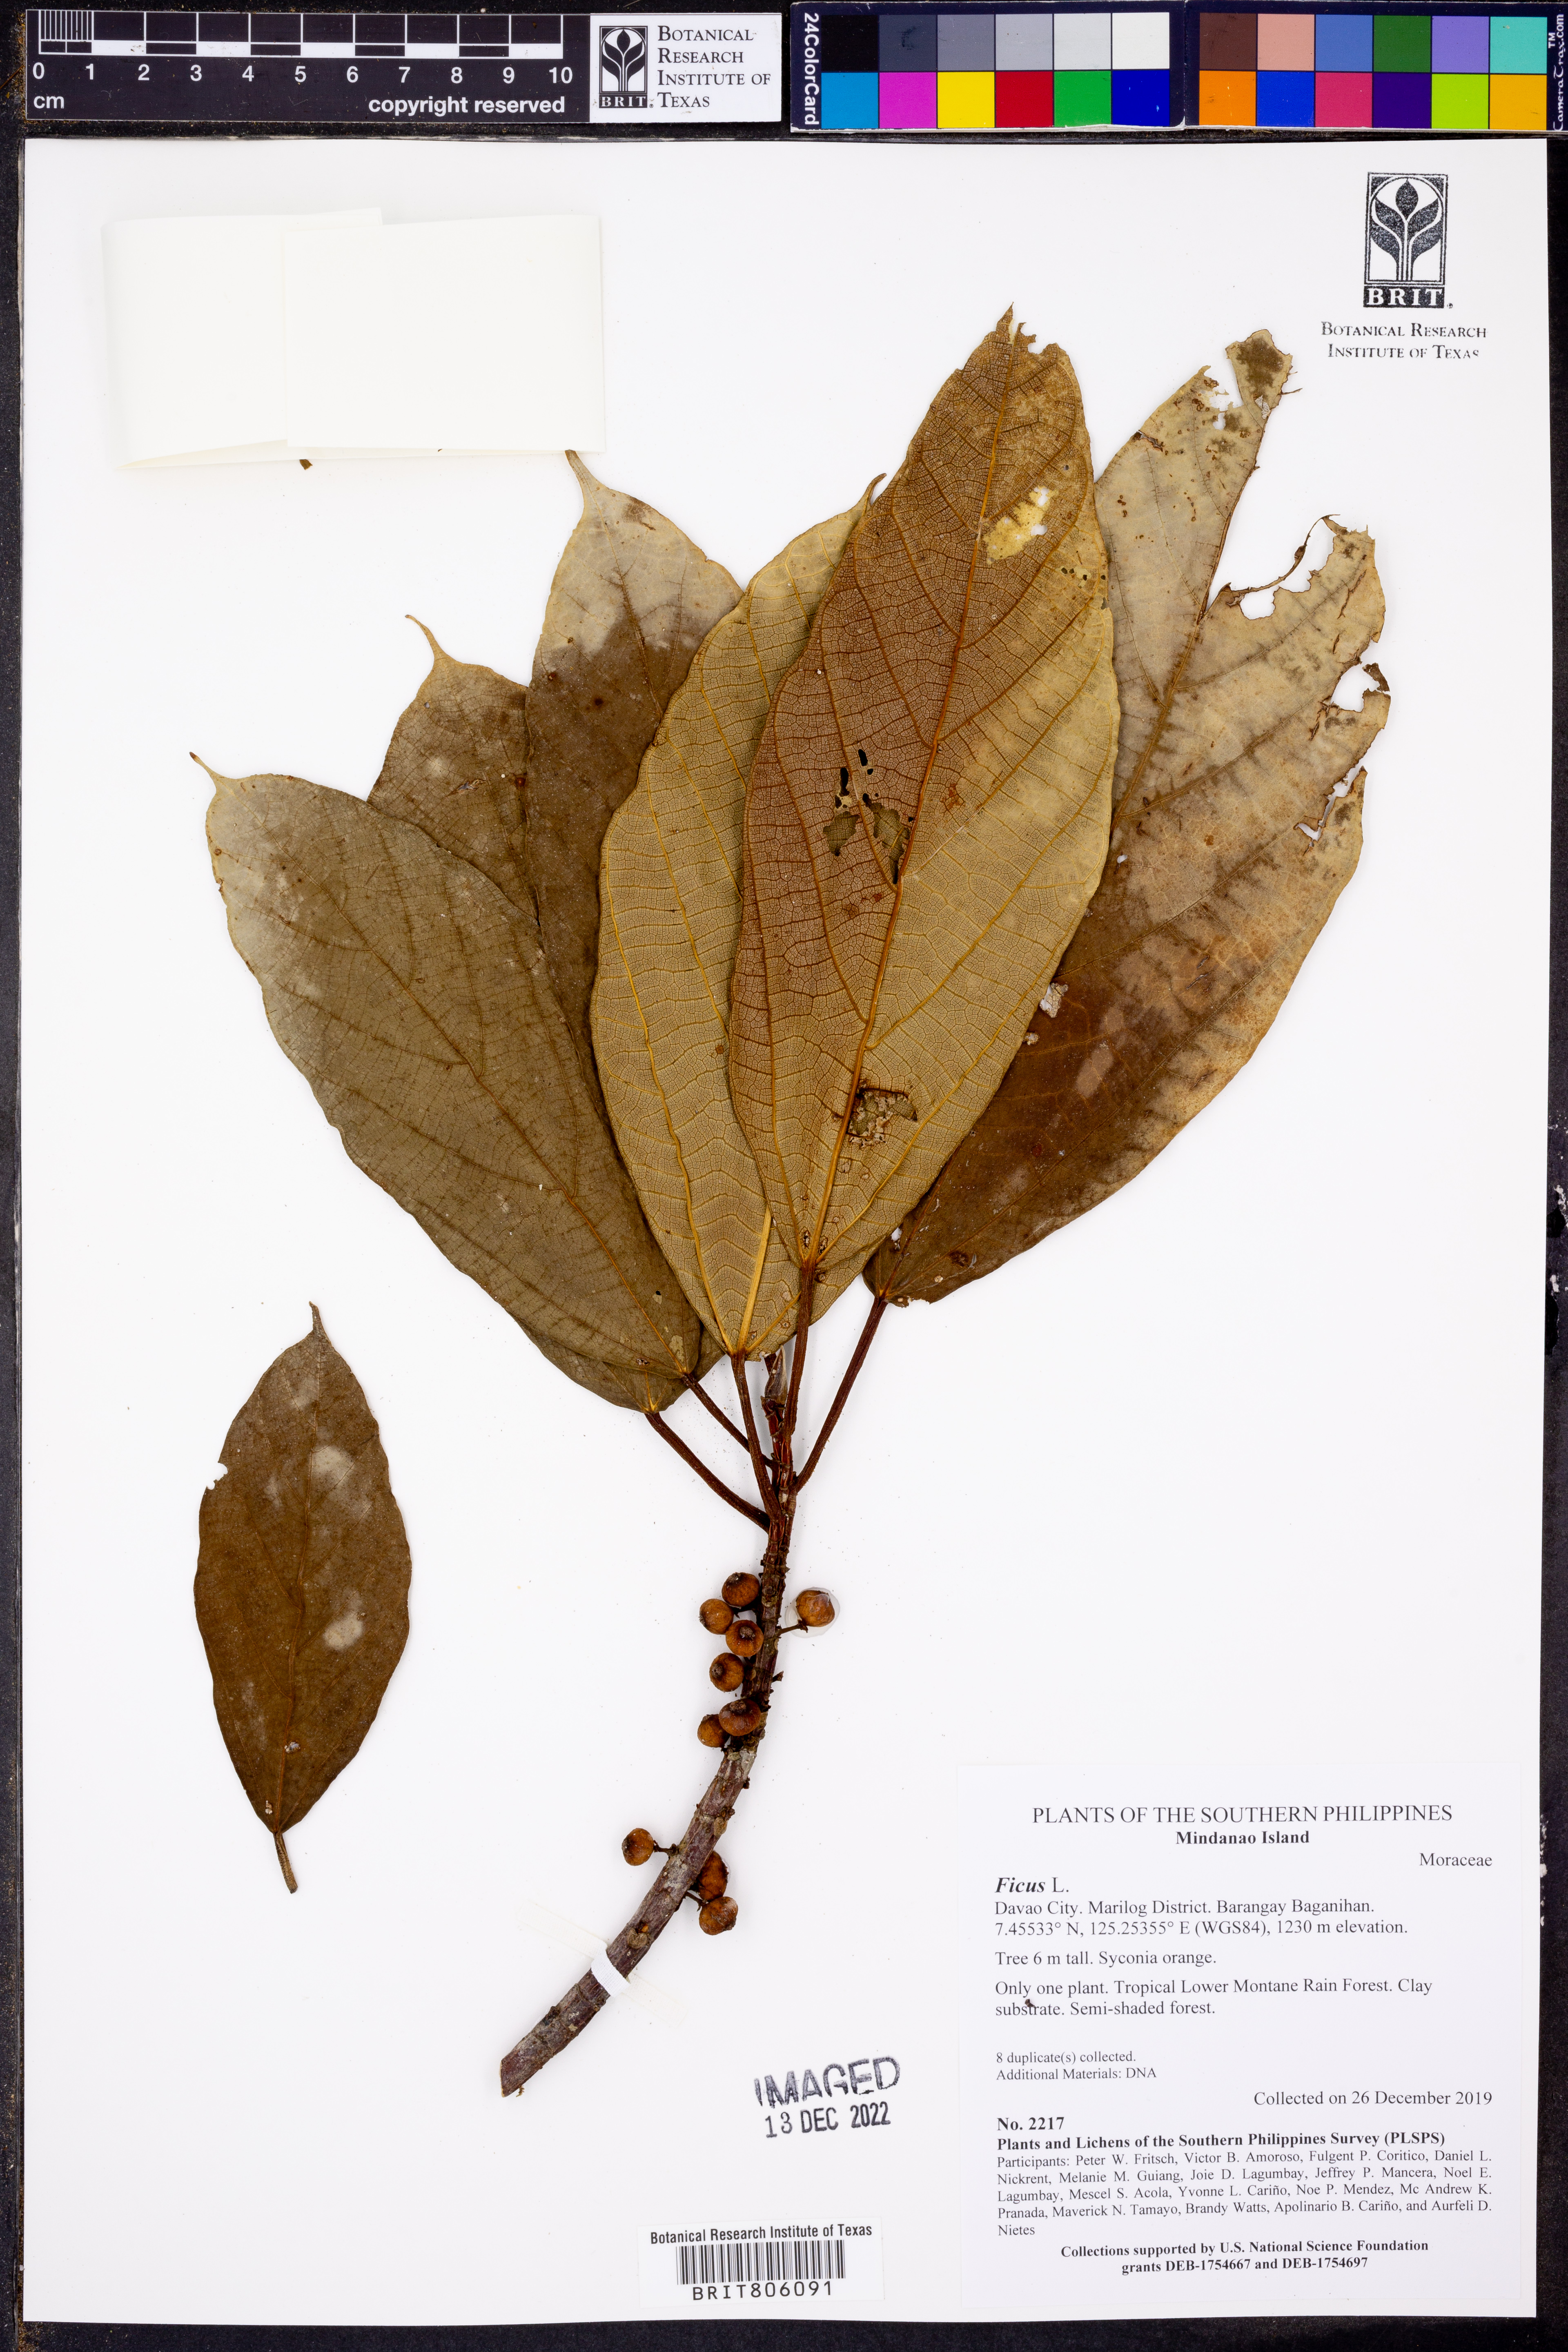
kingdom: Plantae
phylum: Tracheophyta
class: Magnoliopsida
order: Rosales
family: Moraceae
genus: Ficus
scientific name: Ficus
